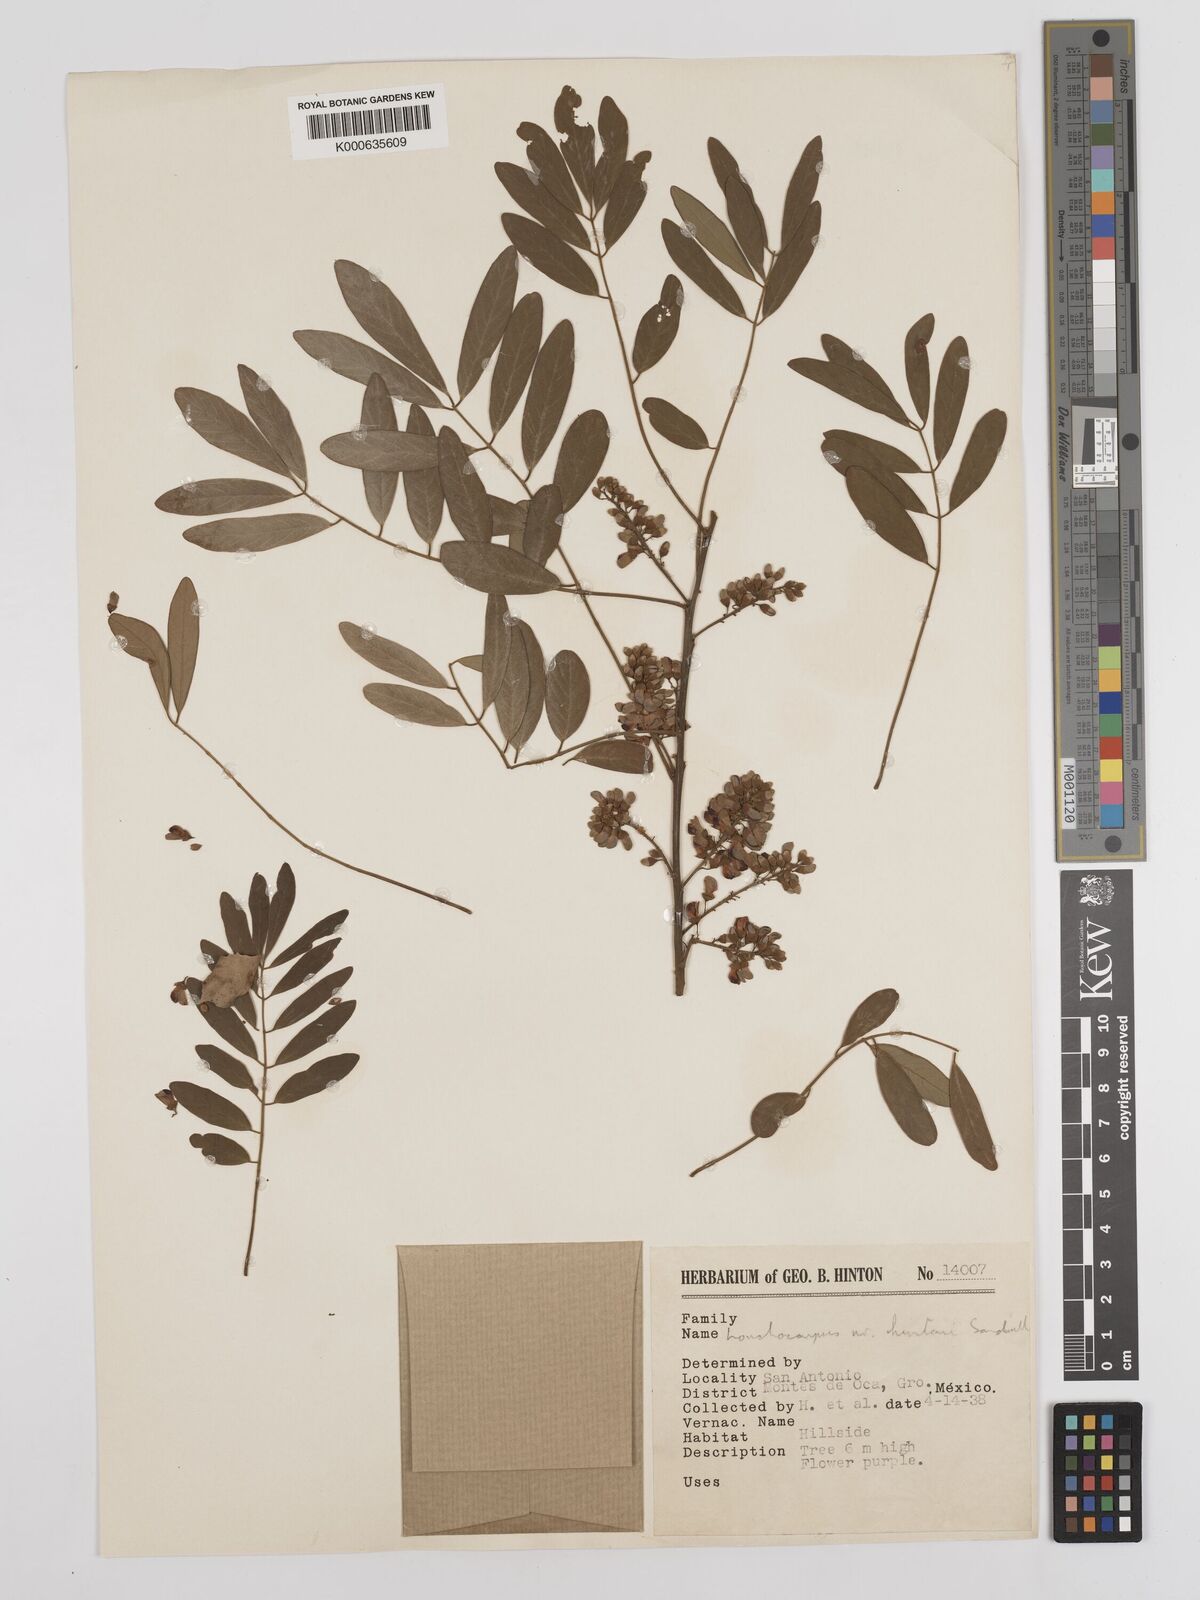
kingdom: Plantae
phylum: Tracheophyta
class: Magnoliopsida
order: Fabales
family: Fabaceae
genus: Lonchocarpus
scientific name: Lonchocarpus hintonii
